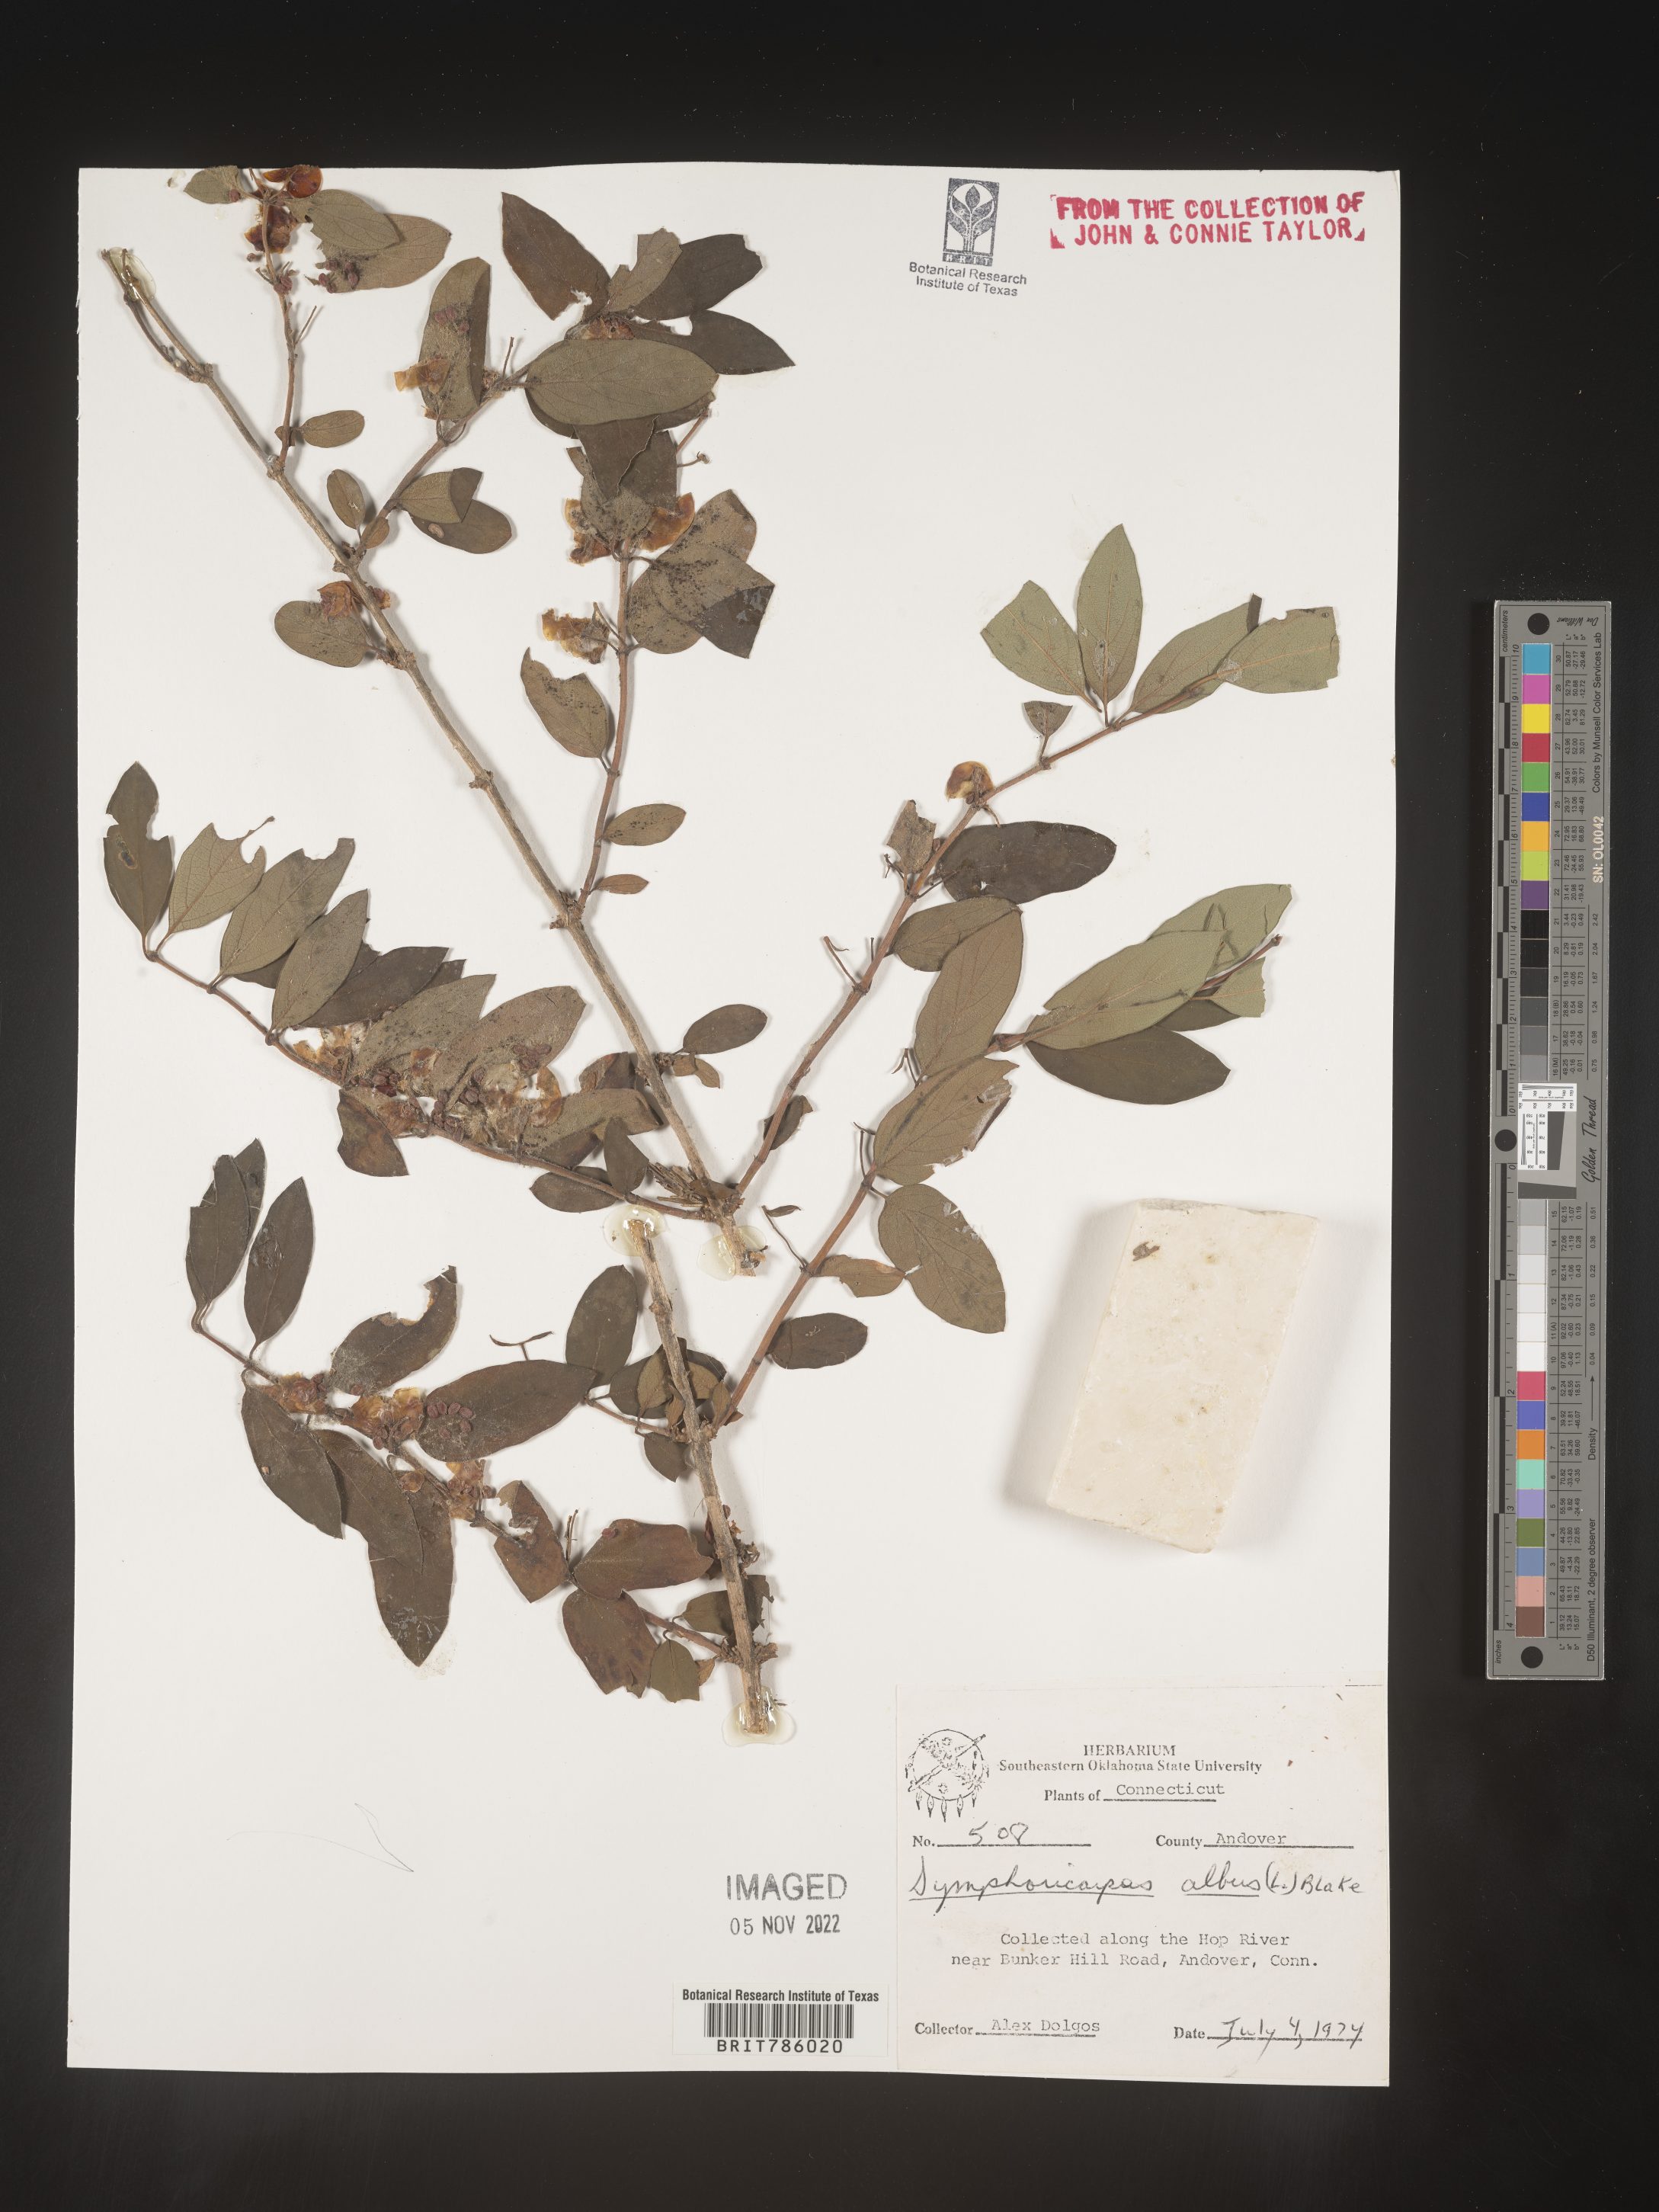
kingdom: Plantae
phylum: Tracheophyta
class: Magnoliopsida
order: Dipsacales
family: Caprifoliaceae
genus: Symphoricarpos
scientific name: Symphoricarpos albus
